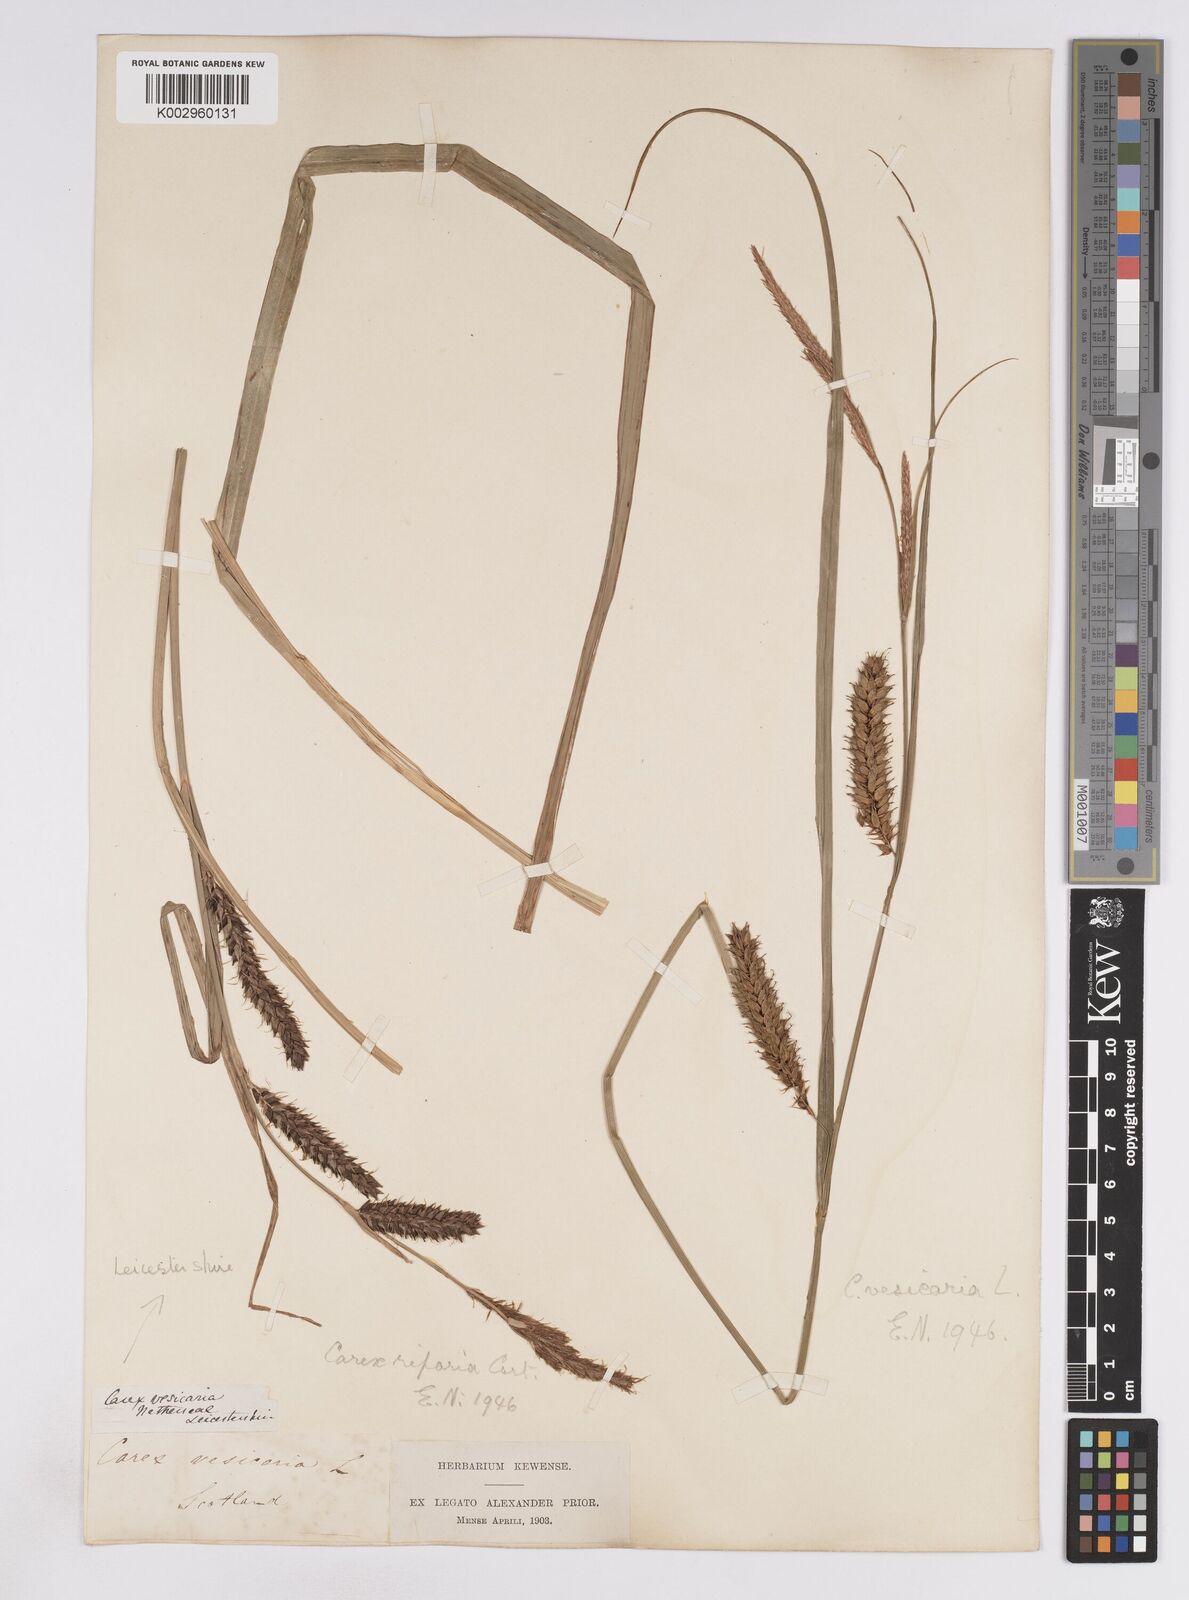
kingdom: Plantae
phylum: Tracheophyta
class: Liliopsida
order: Poales
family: Cyperaceae
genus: Carex
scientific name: Carex vesicaria
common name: Bladder-sedge
